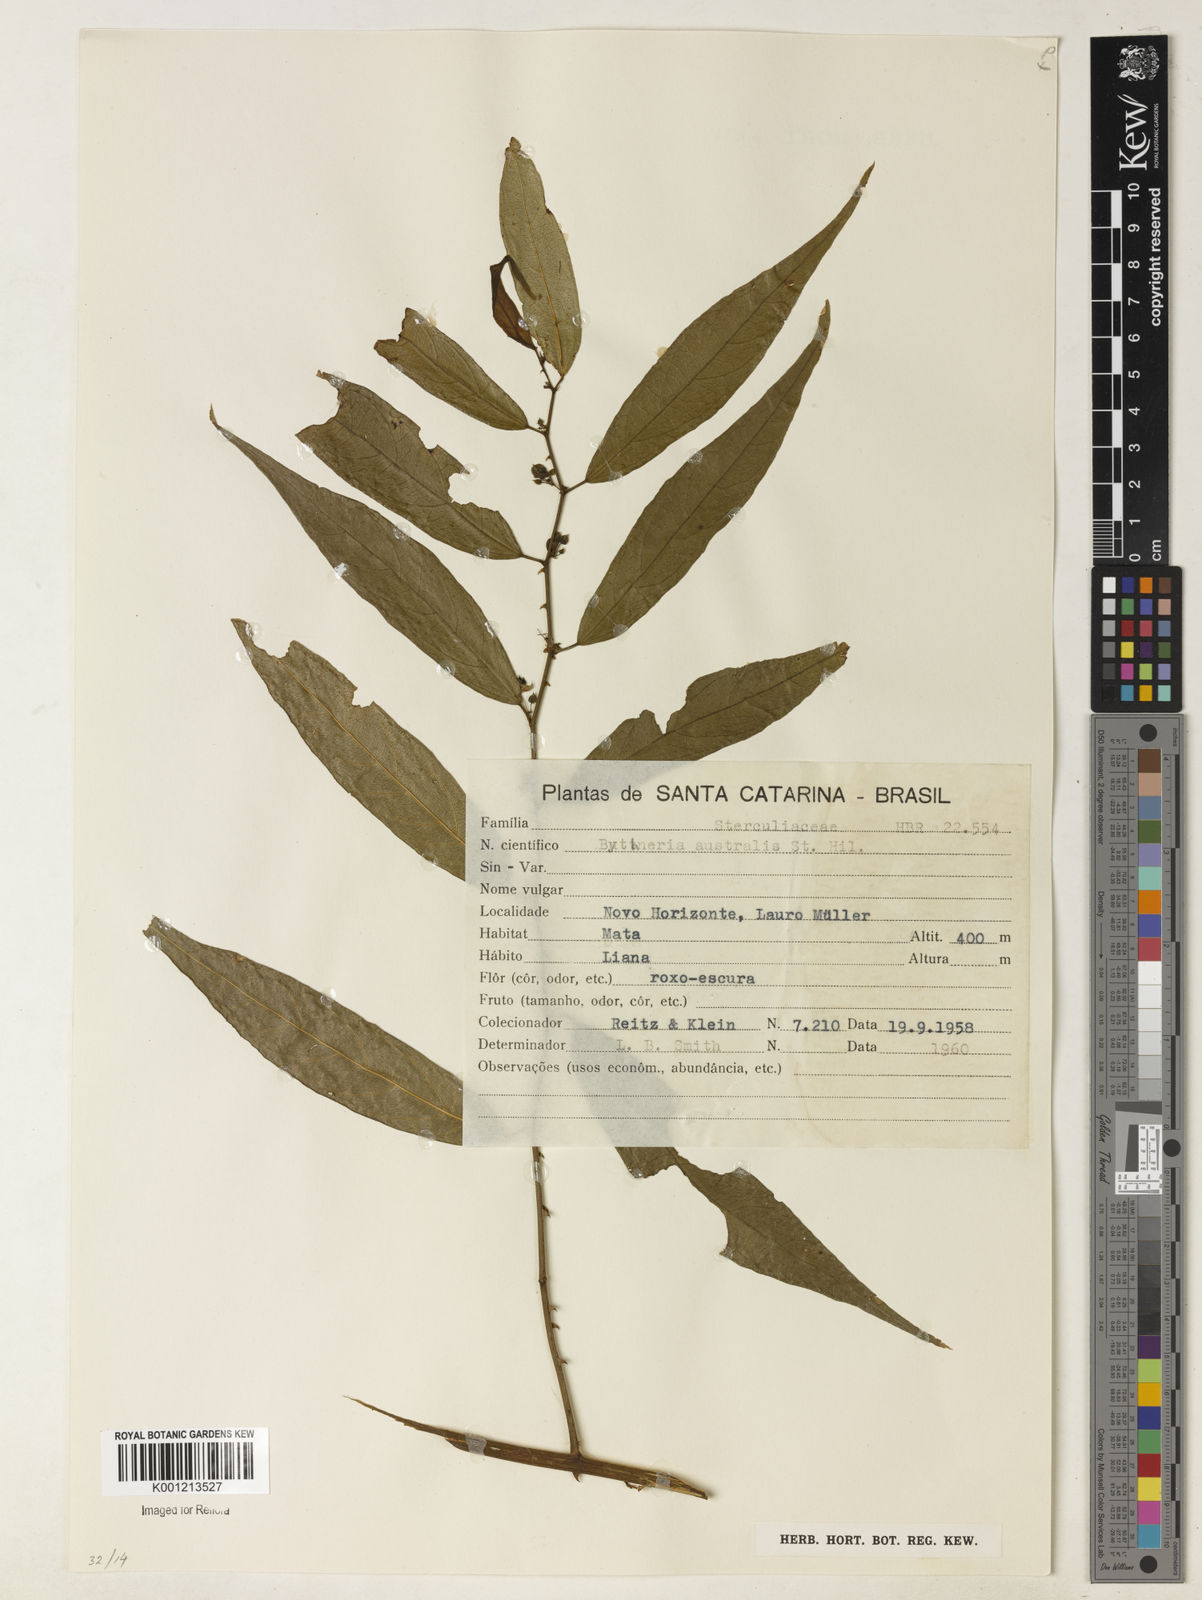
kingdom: Plantae
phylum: Tracheophyta
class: Magnoliopsida
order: Malvales
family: Malvaceae
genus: Byttneria
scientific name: Byttneria australis
